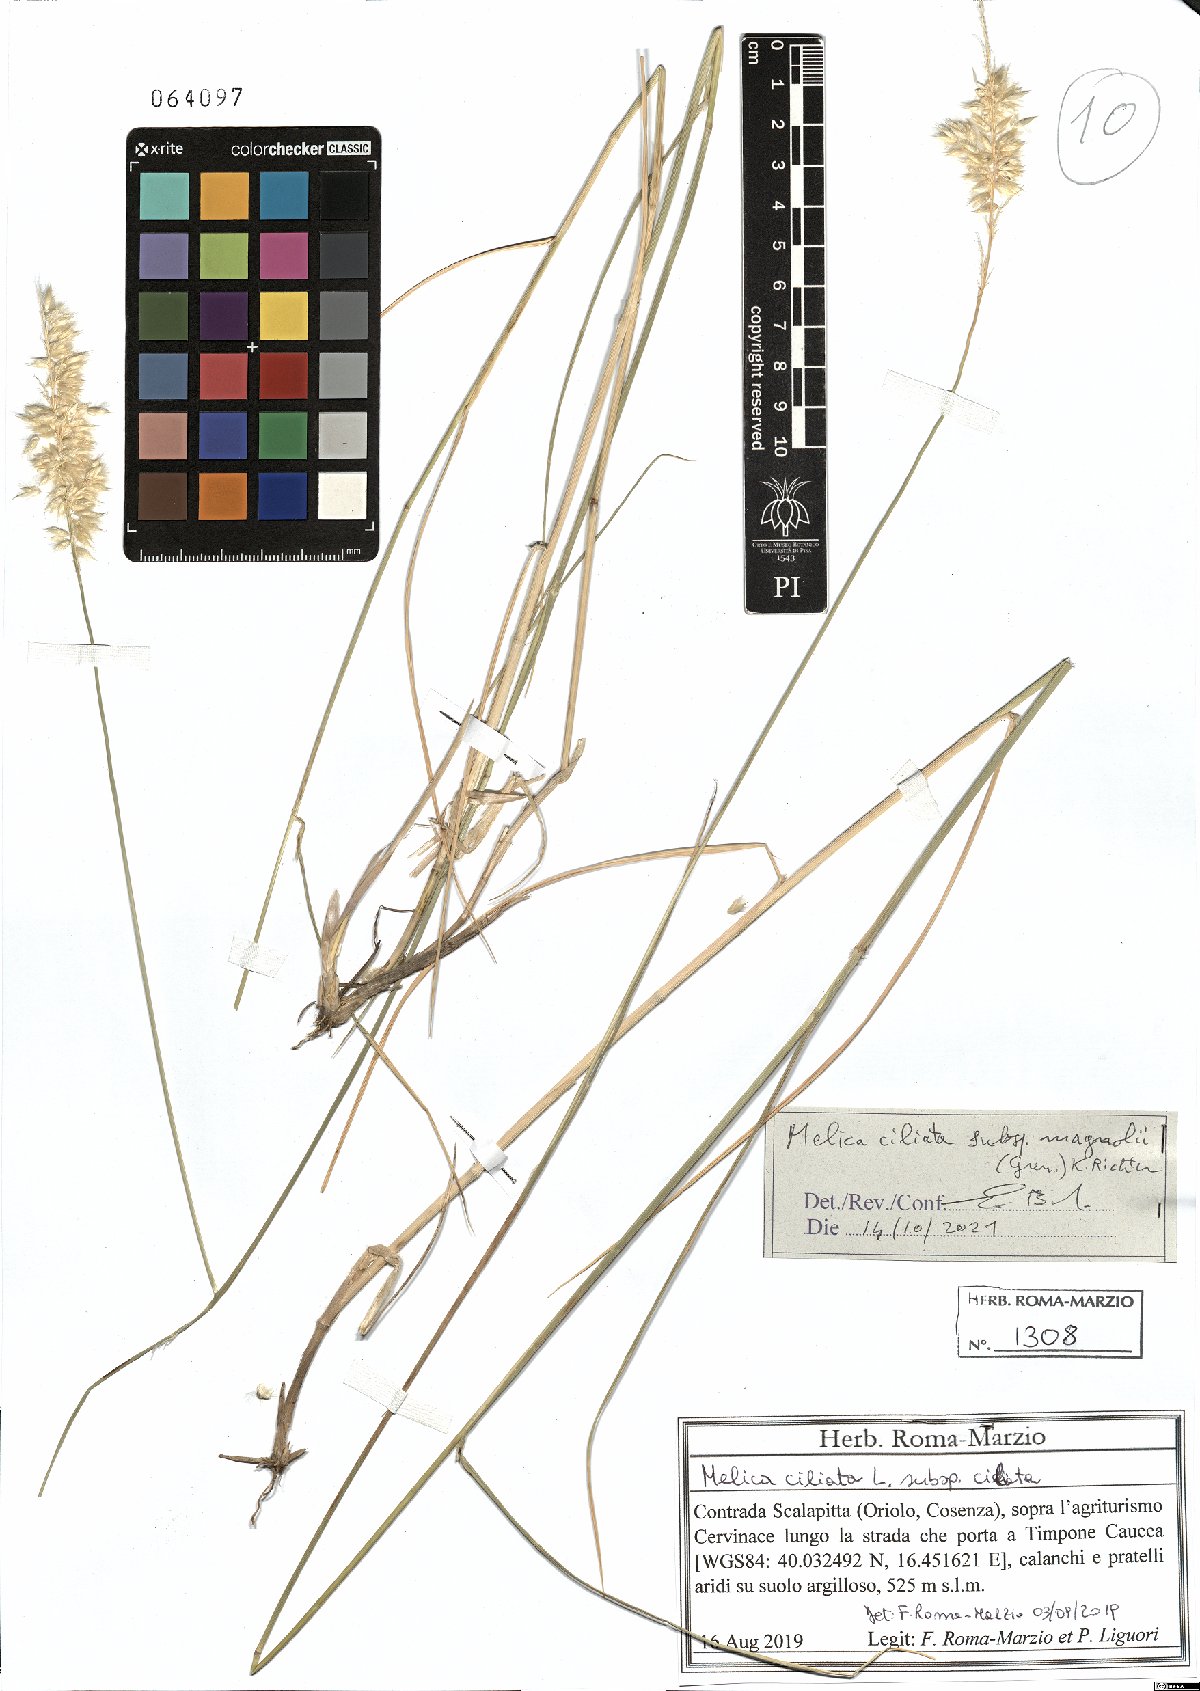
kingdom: Plantae
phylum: Tracheophyta
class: Liliopsida
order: Poales
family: Poaceae
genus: Melica
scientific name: Melica ciliata
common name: Hairy melicgrass
